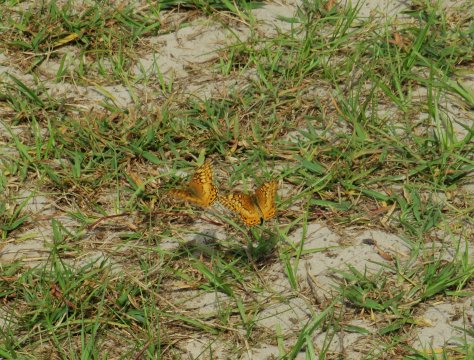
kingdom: Animalia
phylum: Arthropoda
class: Insecta
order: Lepidoptera
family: Nymphalidae
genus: Euptoieta
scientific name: Euptoieta claudia
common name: Variegated Fritillary
